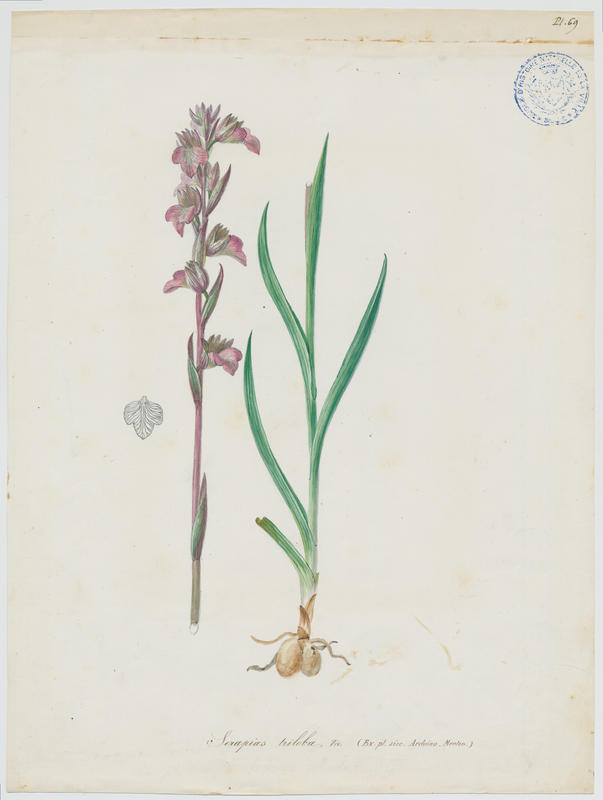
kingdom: Plantae
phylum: Tracheophyta
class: Liliopsida
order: Asparagales
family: Orchidaceae
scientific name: Orchidaceae
